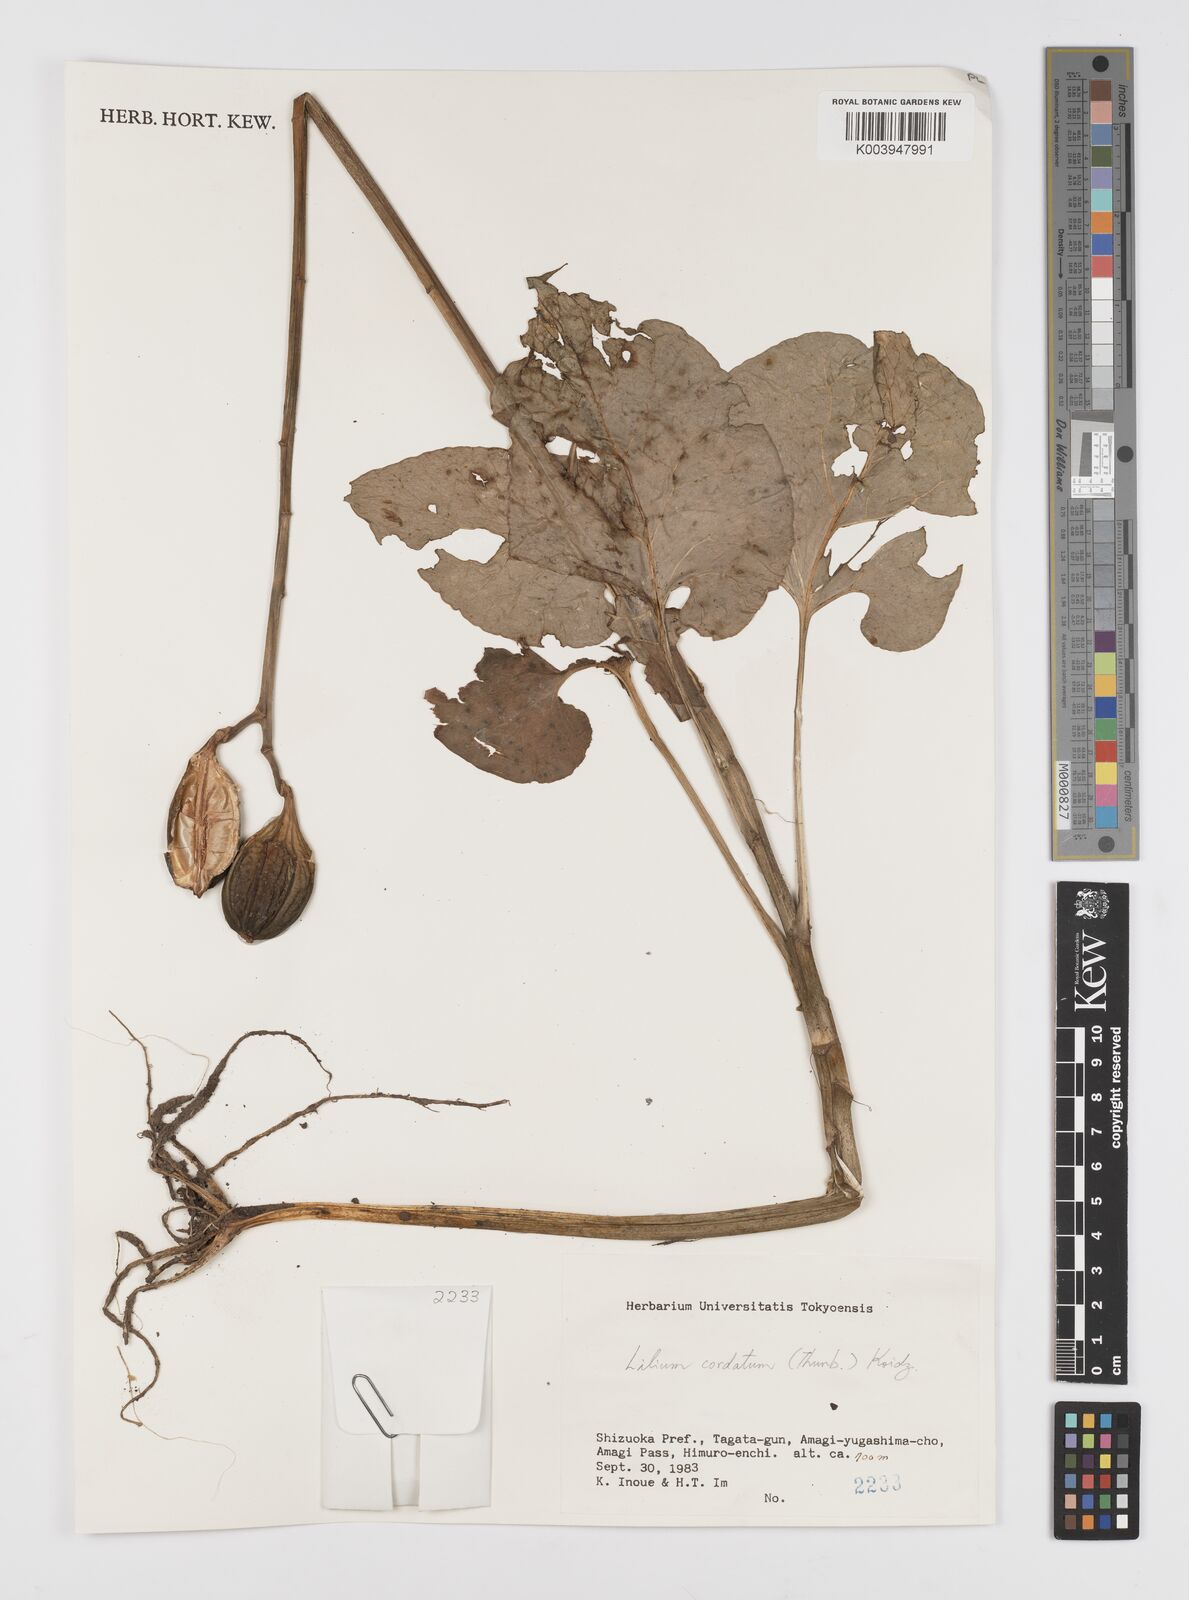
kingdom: Plantae
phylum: Tracheophyta
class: Liliopsida
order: Liliales
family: Liliaceae
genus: Cardiocrinum
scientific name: Cardiocrinum
